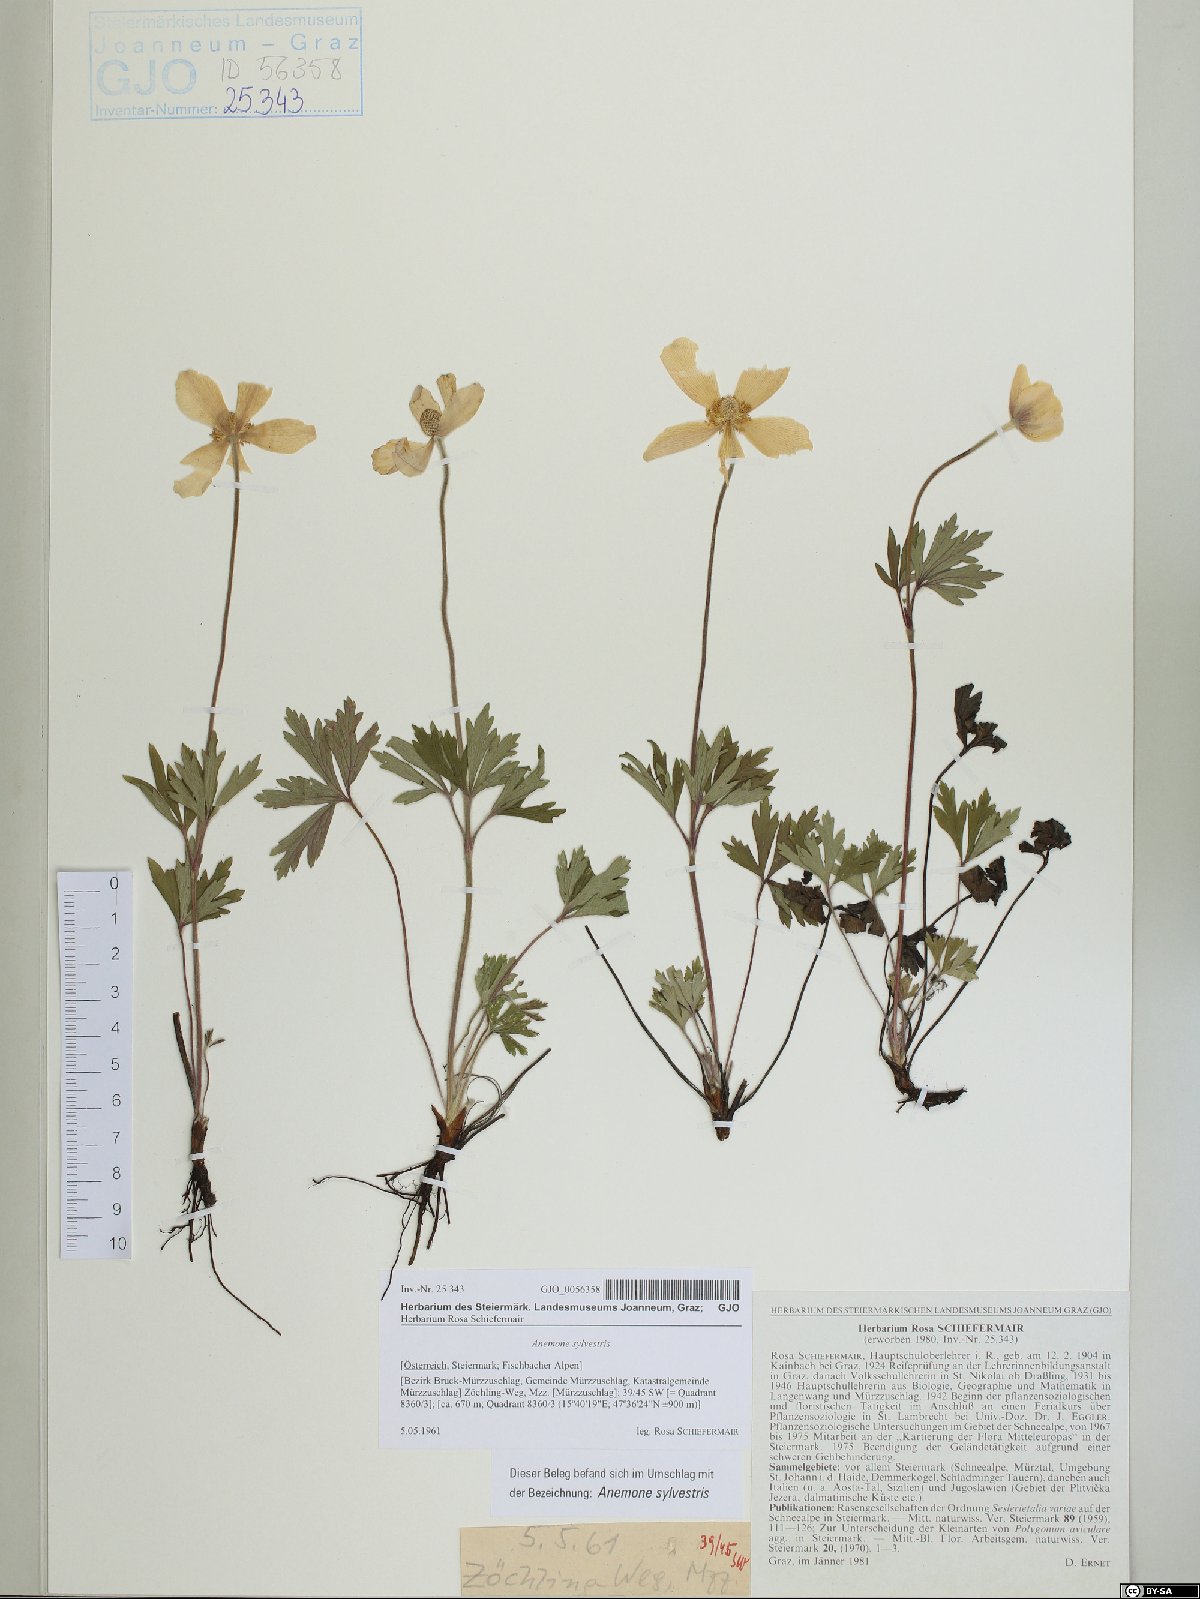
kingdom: Plantae
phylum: Tracheophyta
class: Magnoliopsida
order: Ranunculales
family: Ranunculaceae
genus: Anemone
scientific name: Anemone sylvestris
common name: Snowdrop anemone
